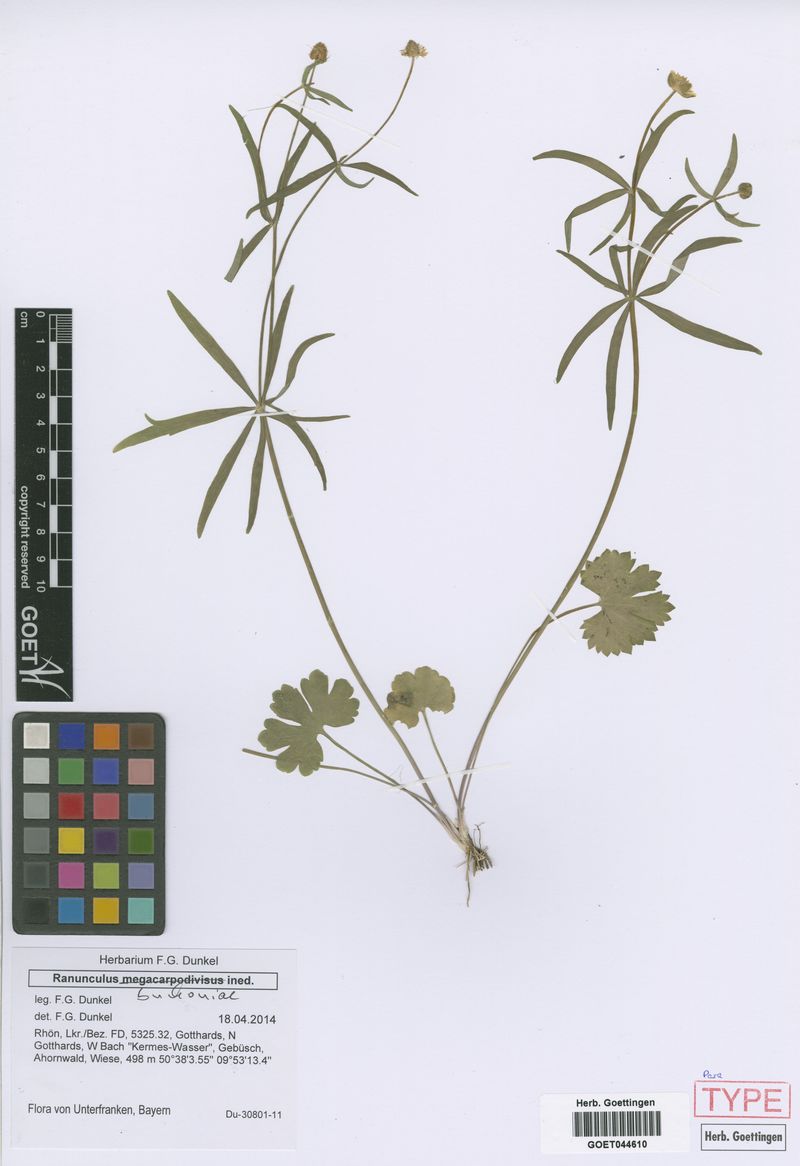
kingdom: Plantae
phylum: Tracheophyta
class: Magnoliopsida
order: Ranunculales
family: Ranunculaceae
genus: Ranunculus
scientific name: Ranunculus buchoniae
